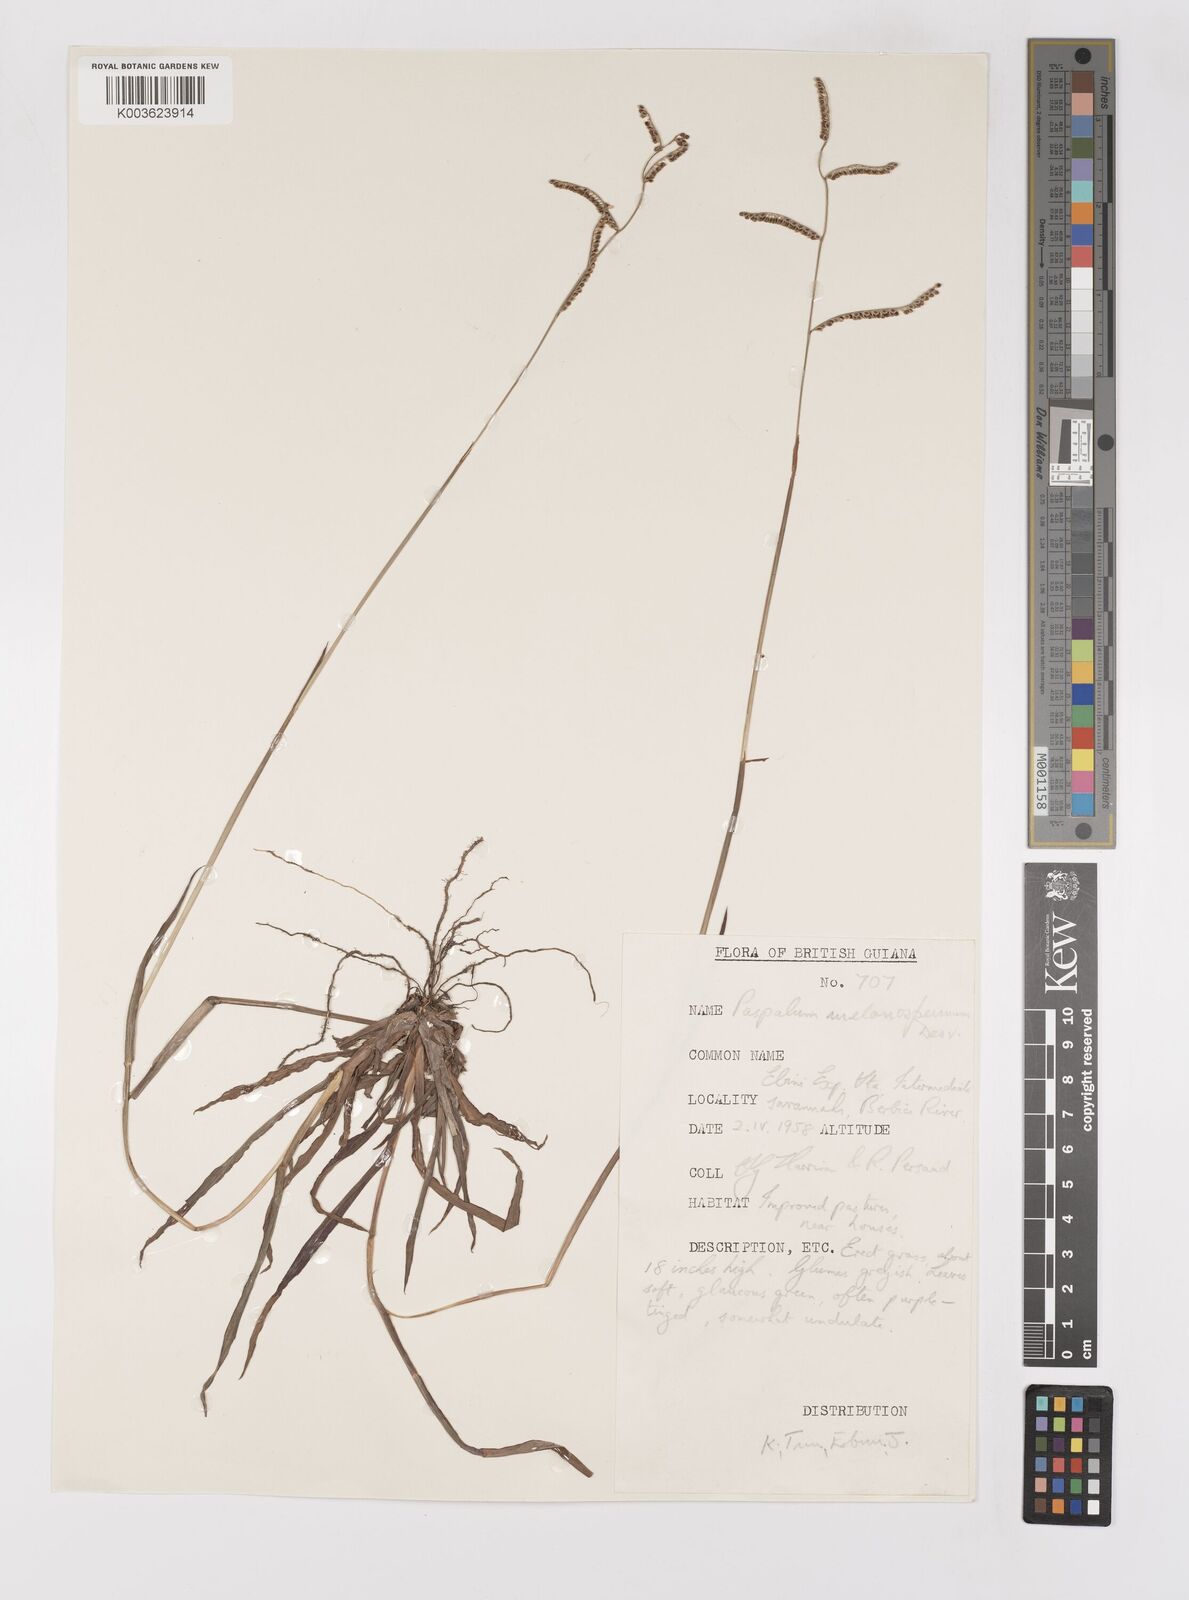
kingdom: Plantae
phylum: Tracheophyta
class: Liliopsida
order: Poales
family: Poaceae
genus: Paspalum
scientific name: Paspalum melanospermum
